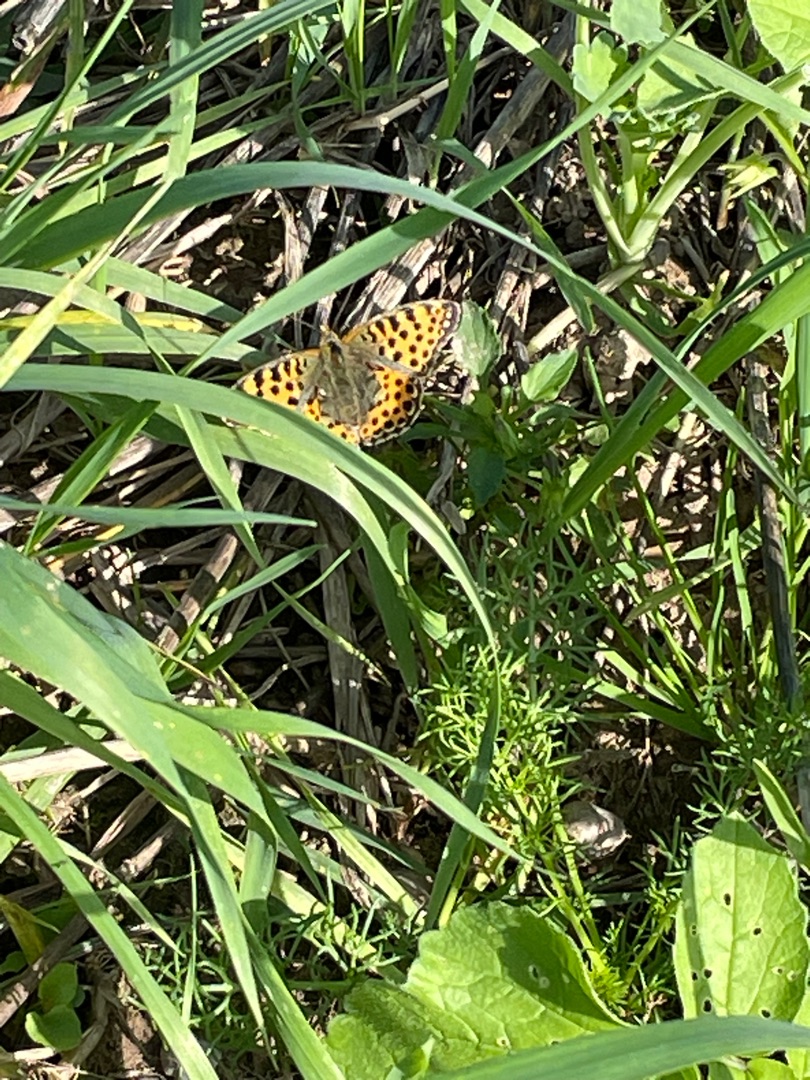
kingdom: Animalia
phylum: Arthropoda
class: Insecta
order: Lepidoptera
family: Nymphalidae
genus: Issoria
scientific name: Issoria lathonia
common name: Storplettet perlemorsommerfugl
